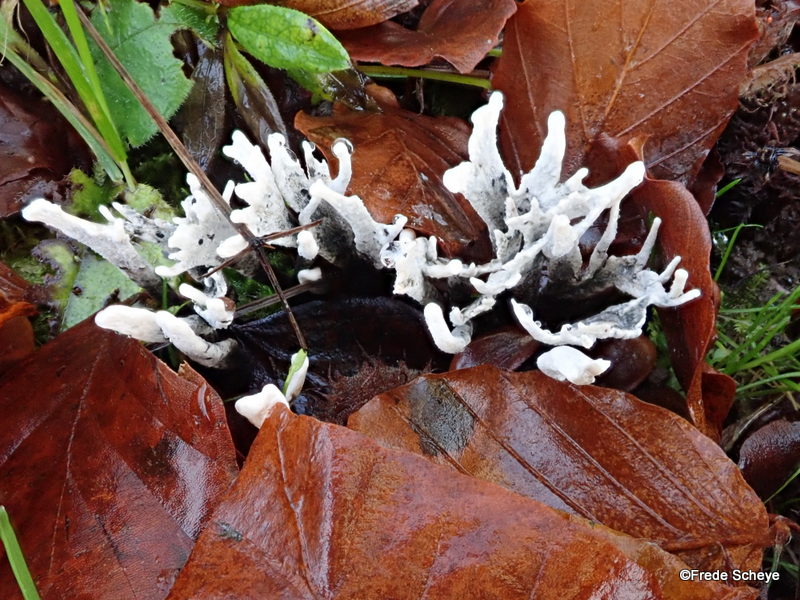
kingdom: Fungi
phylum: Ascomycota
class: Sordariomycetes
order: Xylariales
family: Xylariaceae
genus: Xylaria
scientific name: Xylaria hypoxylon
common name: grenet stødsvamp
